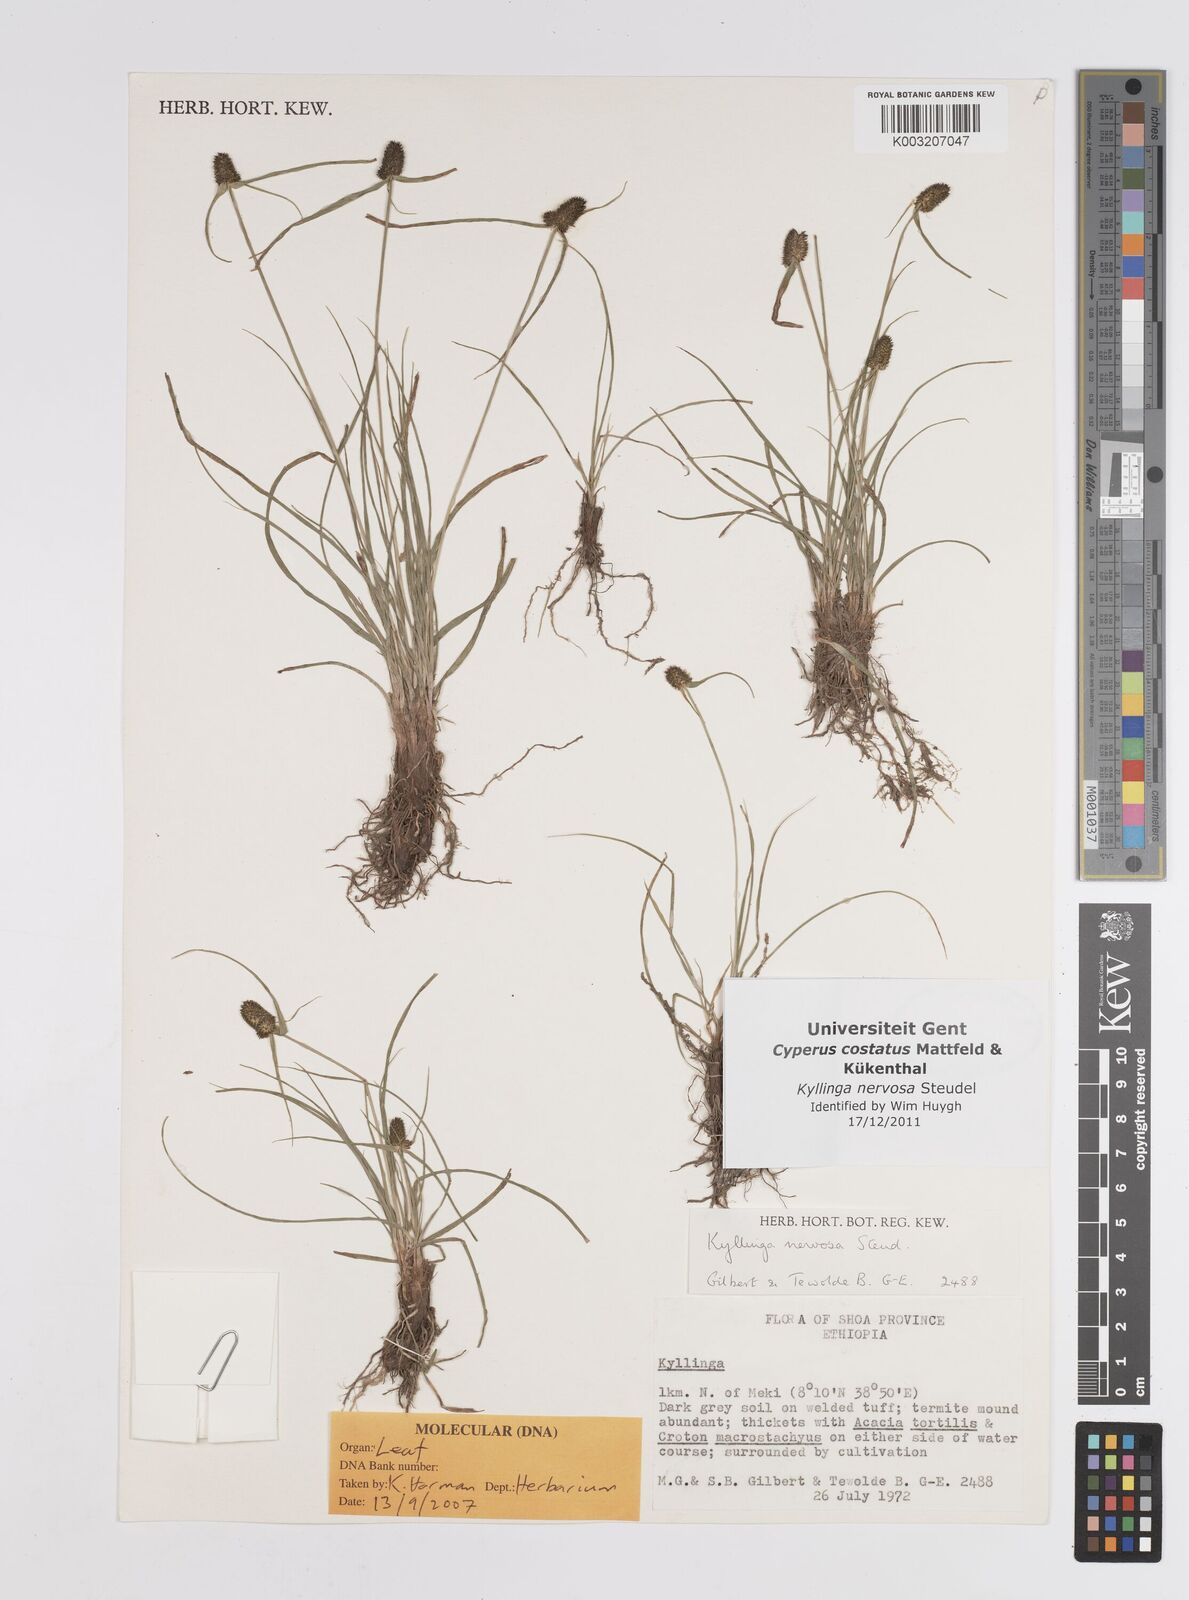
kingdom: Plantae
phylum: Tracheophyta
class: Liliopsida
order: Poales
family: Cyperaceae
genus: Cyperus
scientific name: Cyperus costatus
